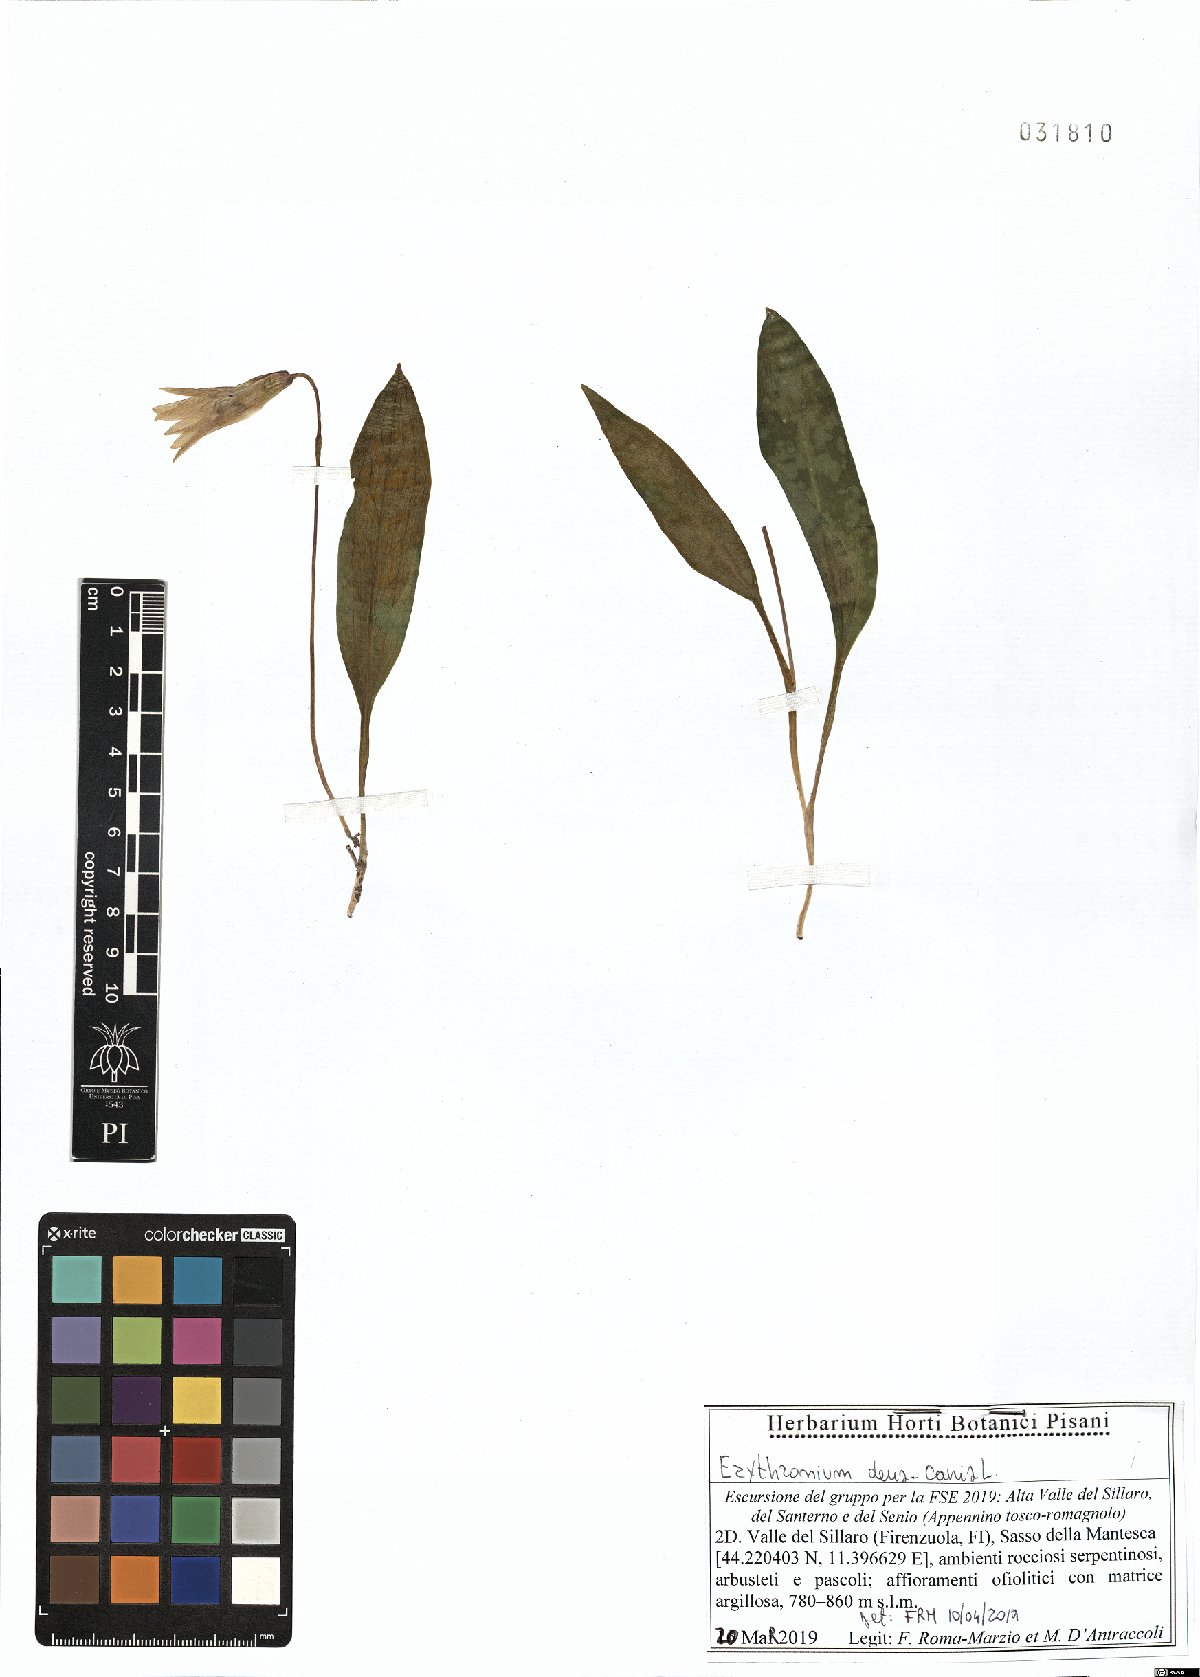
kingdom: Plantae
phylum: Tracheophyta
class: Liliopsida
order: Liliales
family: Liliaceae
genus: Erythronium
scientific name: Erythronium dens-canis
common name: Dog's-tooth-violet
